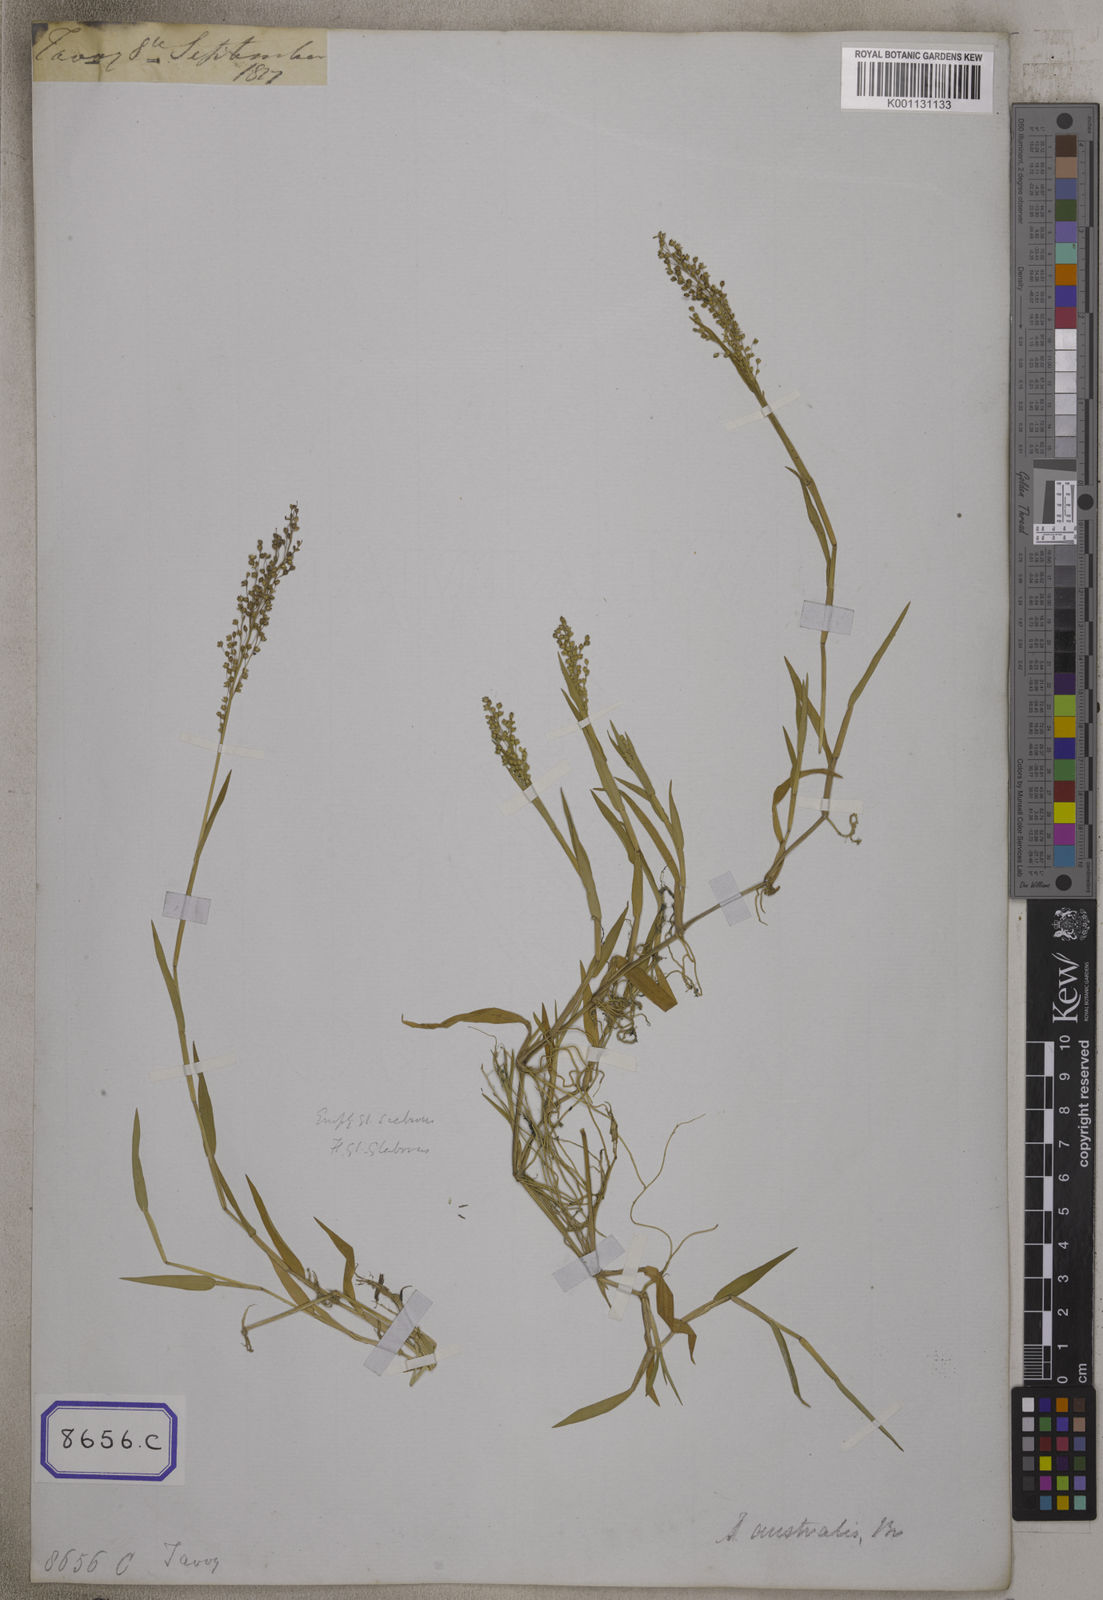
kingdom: Plantae
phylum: Tracheophyta
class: Liliopsida
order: Poales
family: Poaceae
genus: Isachne
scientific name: Isachne
